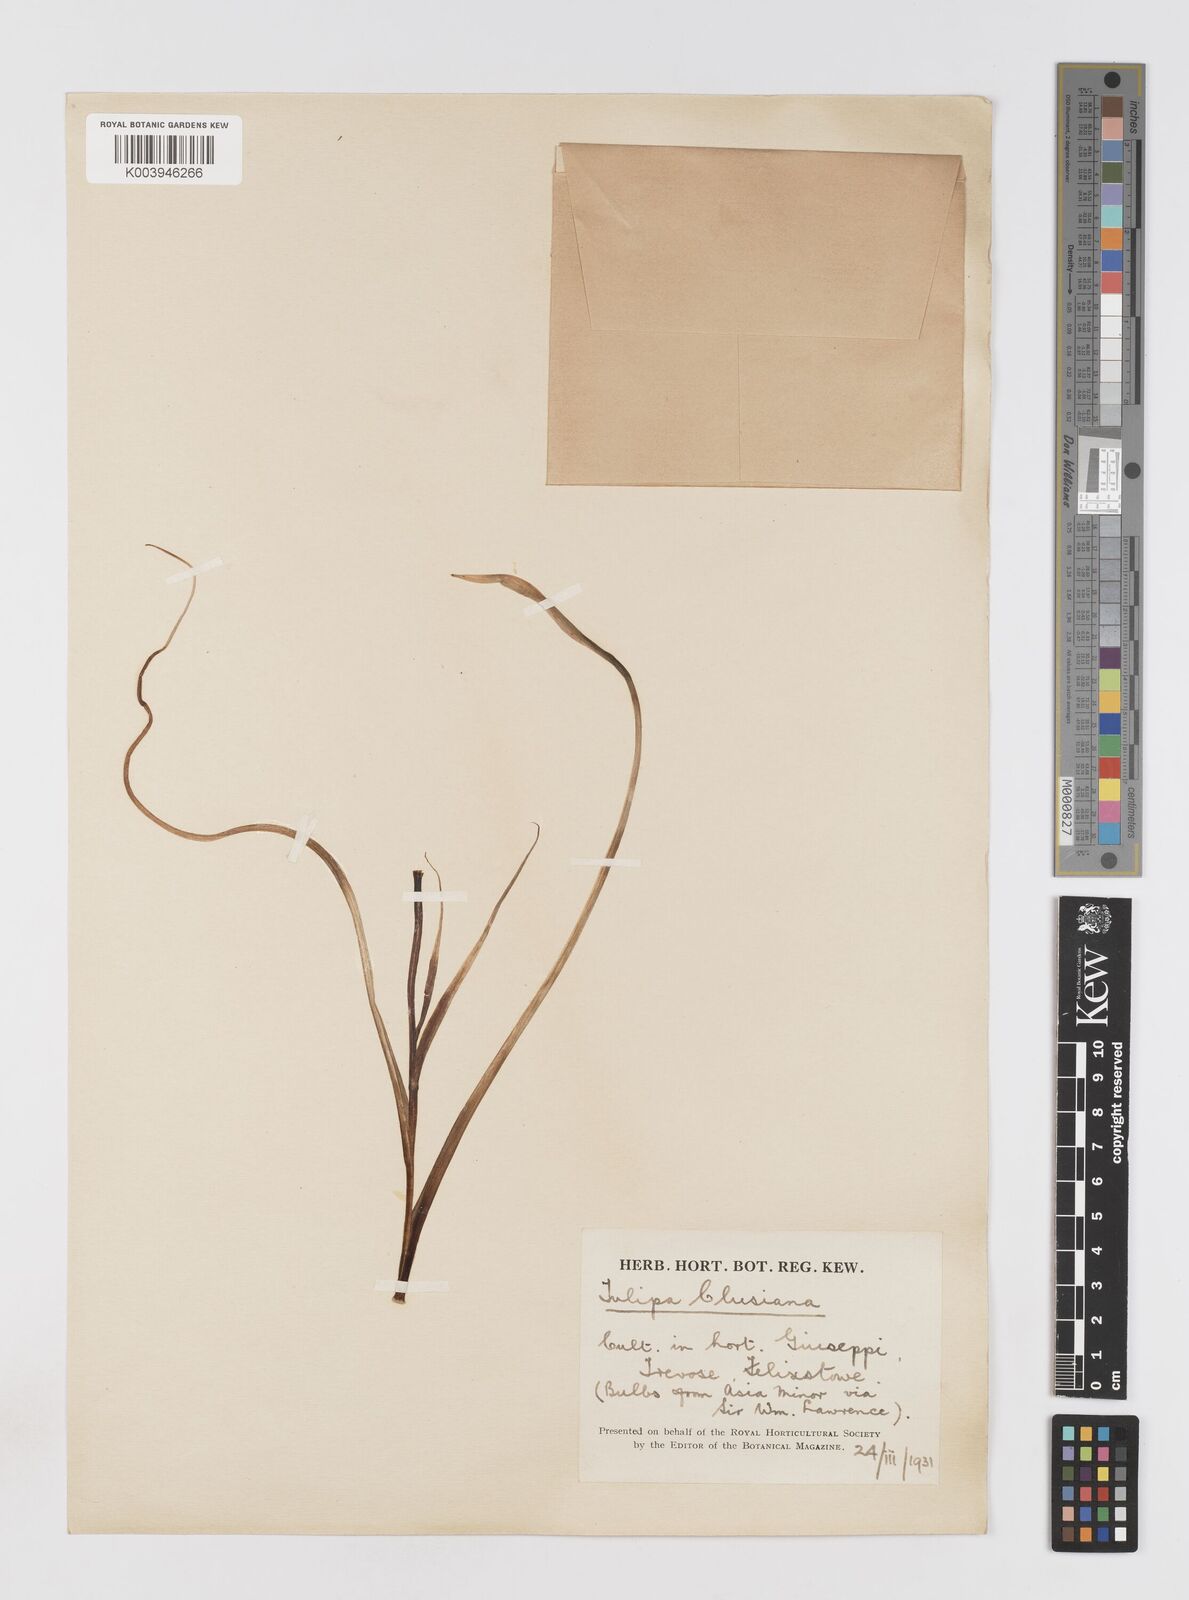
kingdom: Plantae
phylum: Tracheophyta
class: Liliopsida
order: Liliales
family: Liliaceae
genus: Tulipa
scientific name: Tulipa clusiana
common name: Lady tulip
